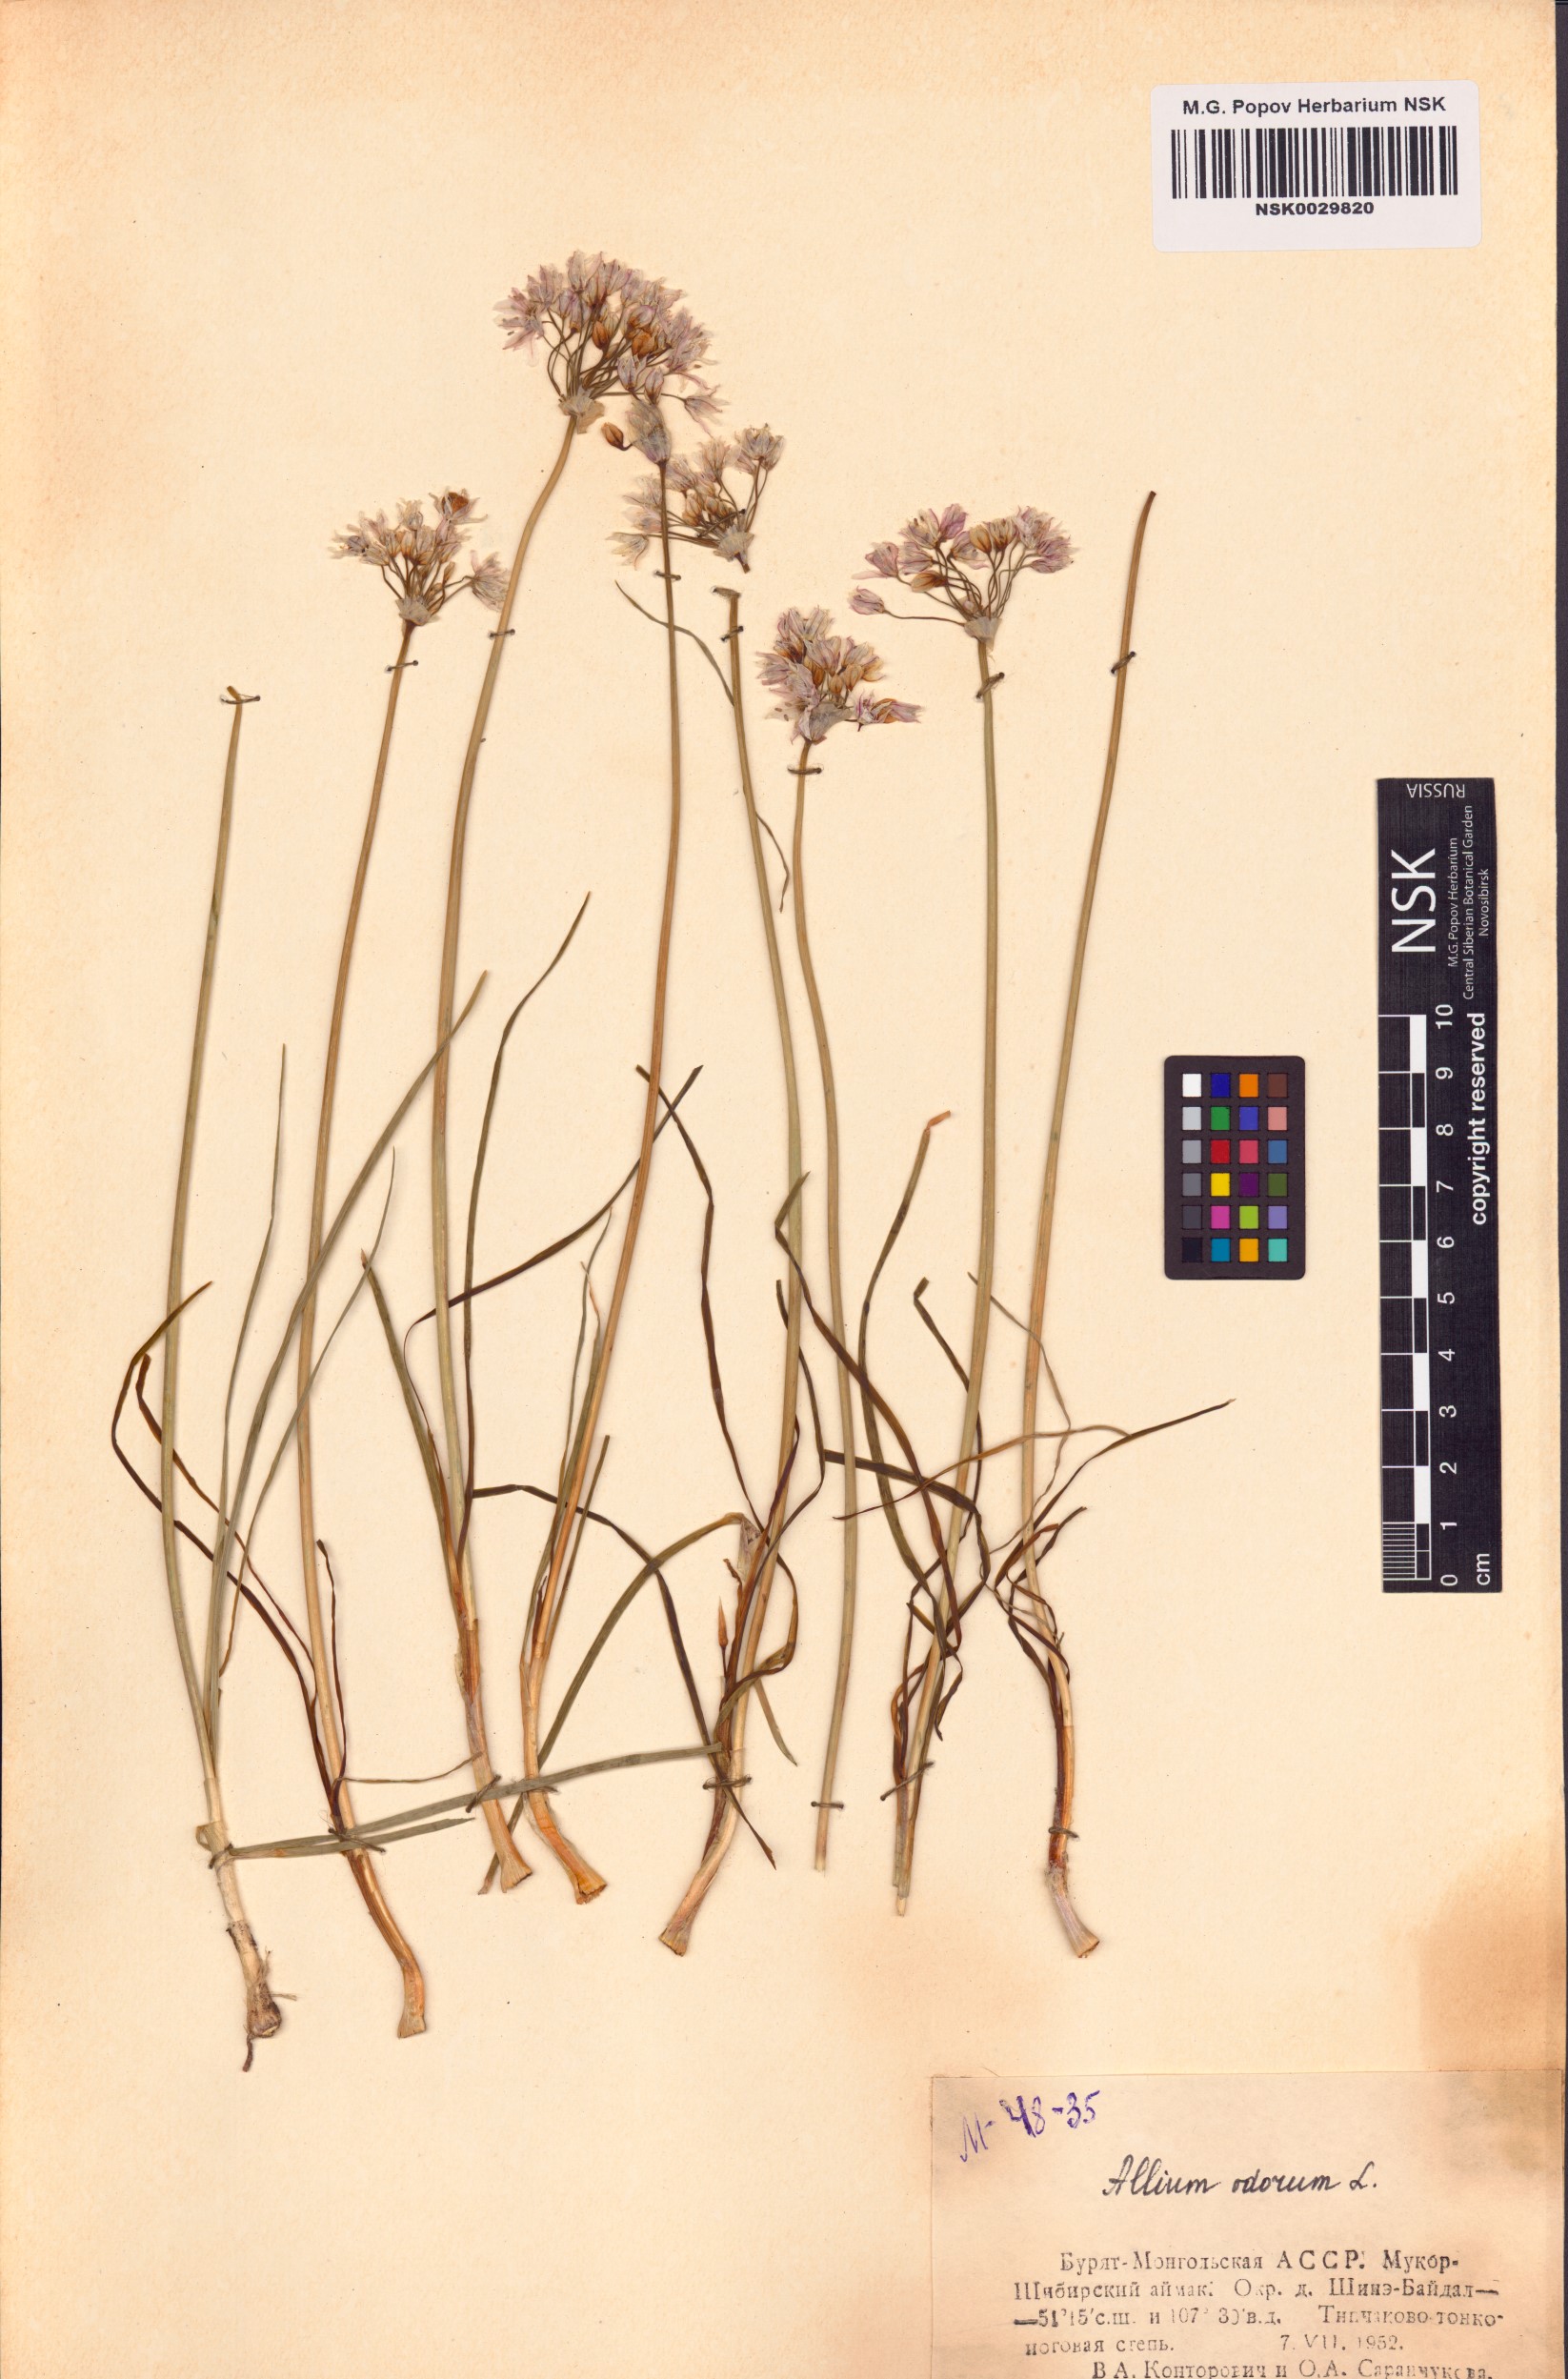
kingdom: Plantae
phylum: Tracheophyta
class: Liliopsida
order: Asparagales
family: Amaryllidaceae
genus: Allium
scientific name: Allium ramosum
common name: Fragrant garlic
